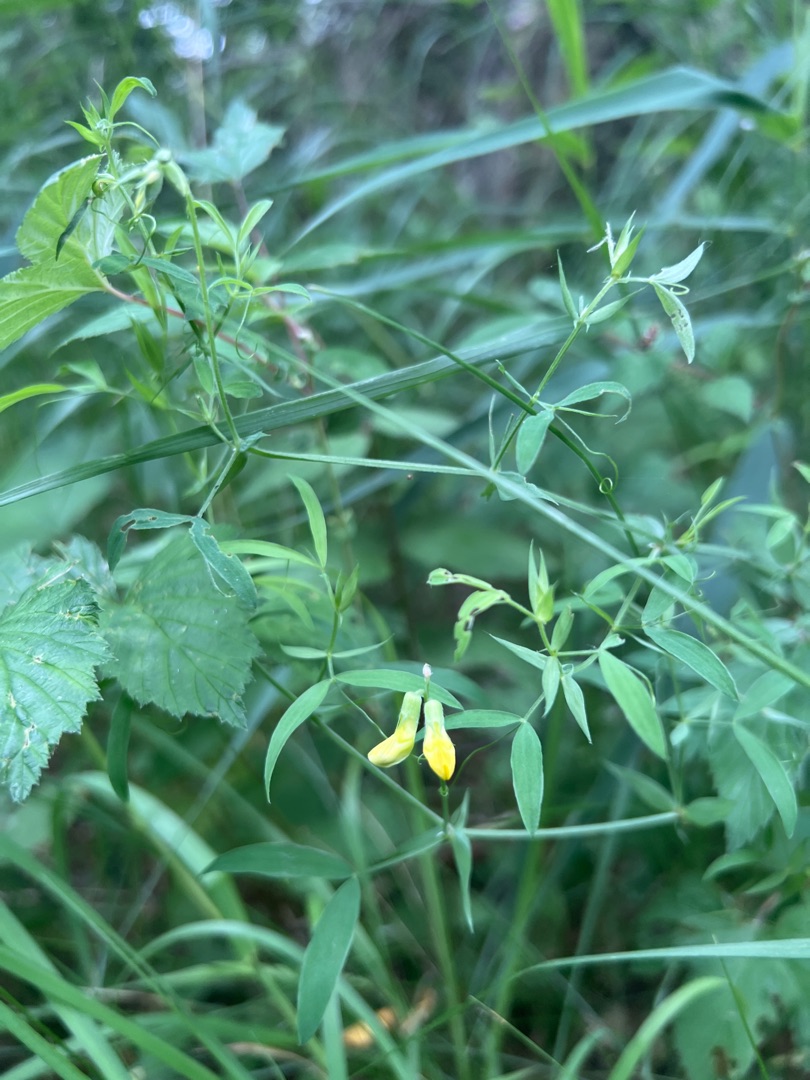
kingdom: Plantae
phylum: Tracheophyta
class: Magnoliopsida
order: Fabales
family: Fabaceae
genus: Lathyrus
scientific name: Lathyrus pratensis
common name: Gul fladbælg
